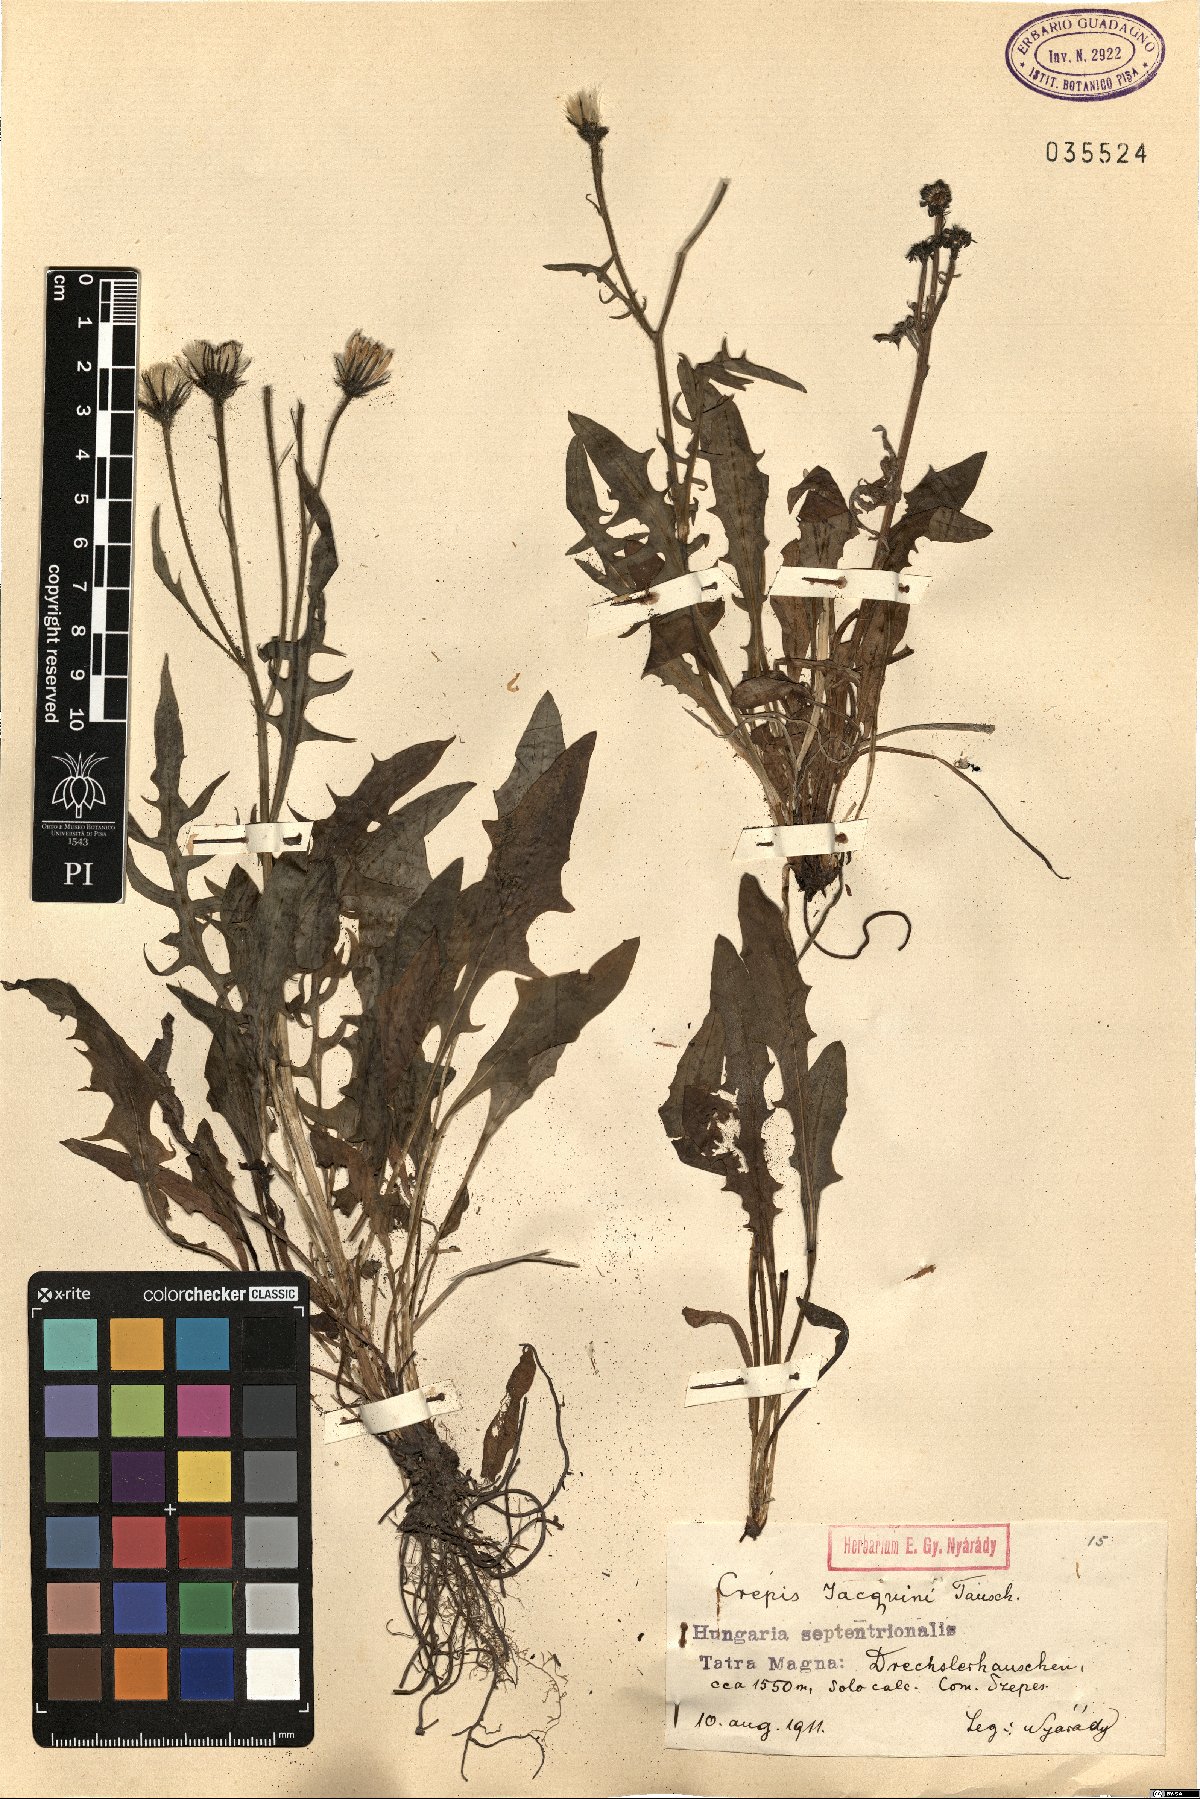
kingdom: Plantae
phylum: Tracheophyta
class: Magnoliopsida
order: Asterales
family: Asteraceae
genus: Crepis
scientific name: Crepis jacquinii
